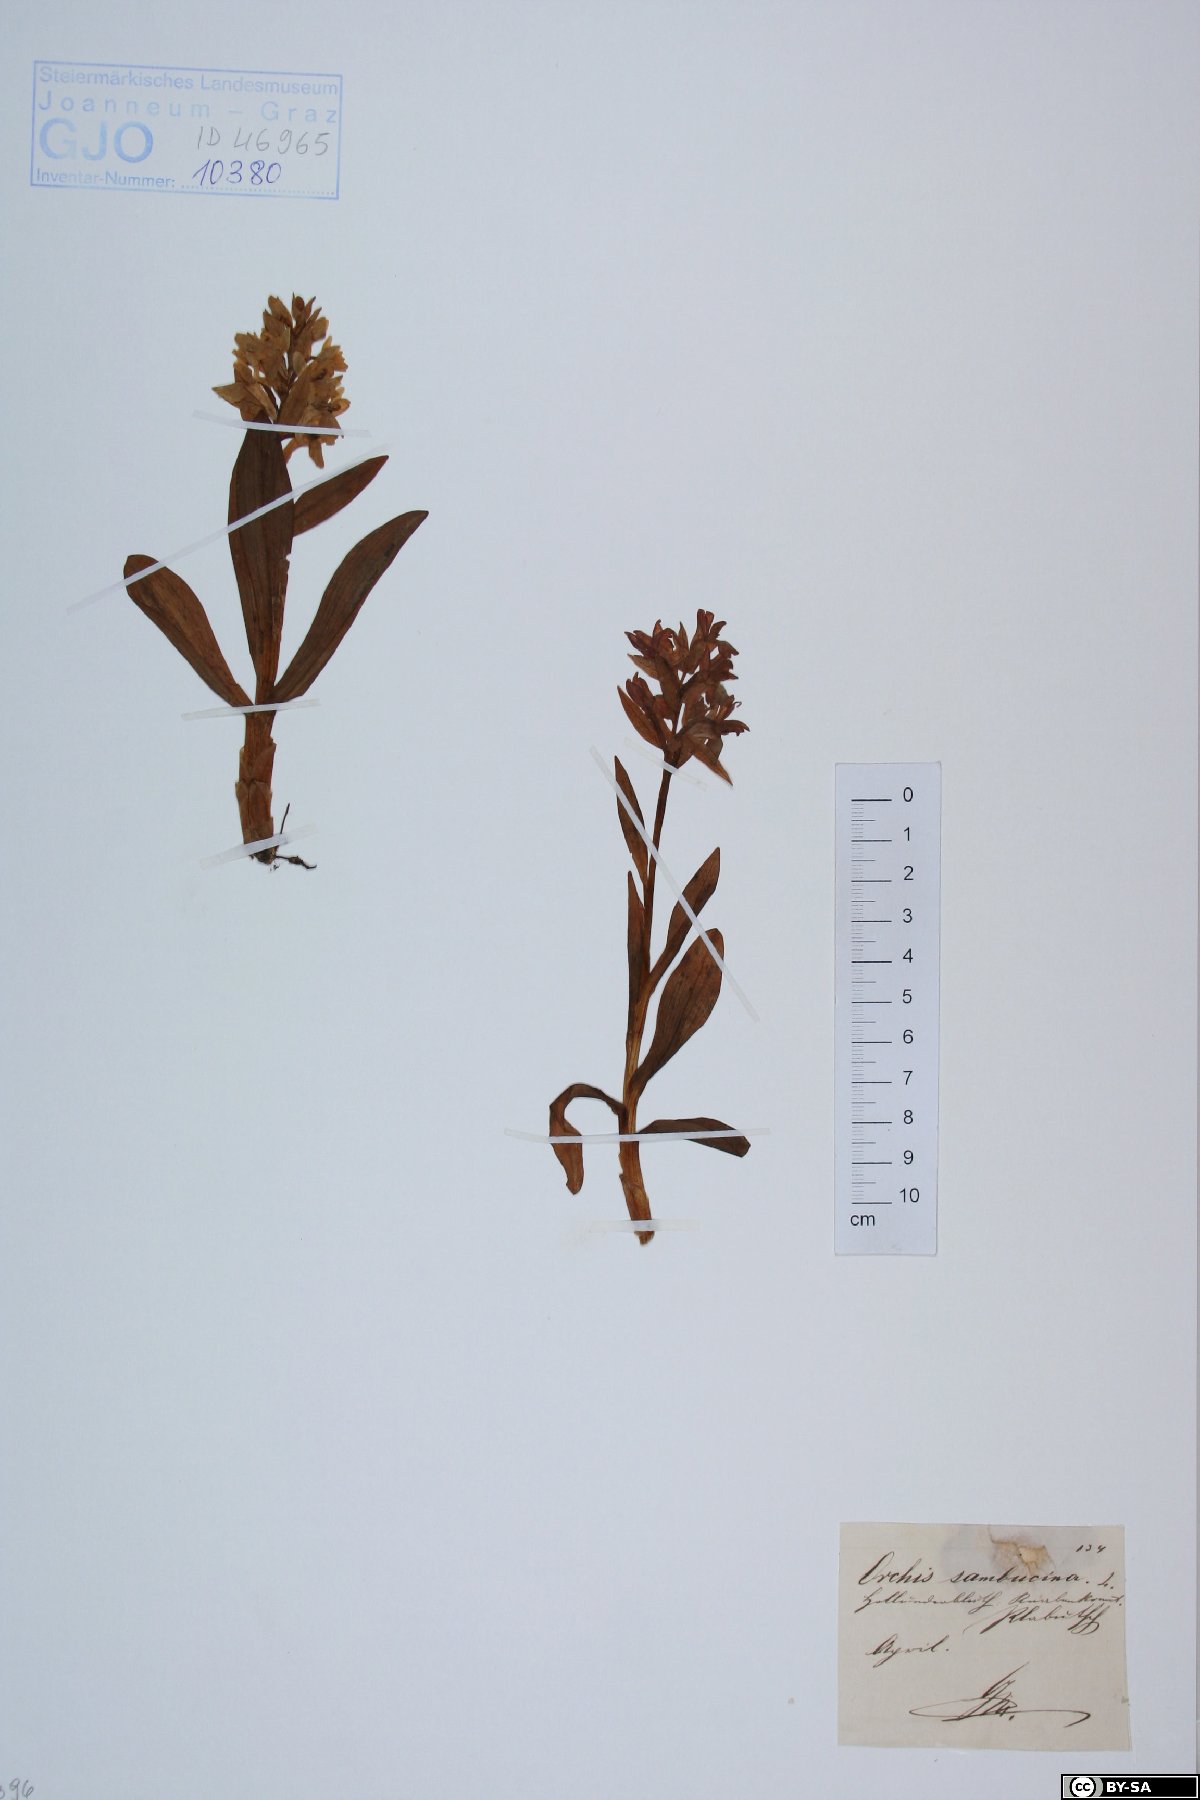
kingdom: Plantae
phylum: Tracheophyta
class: Liliopsida
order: Asparagales
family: Orchidaceae
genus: Dactylorhiza
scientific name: Dactylorhiza sambucina
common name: Elder-flowered orchid
